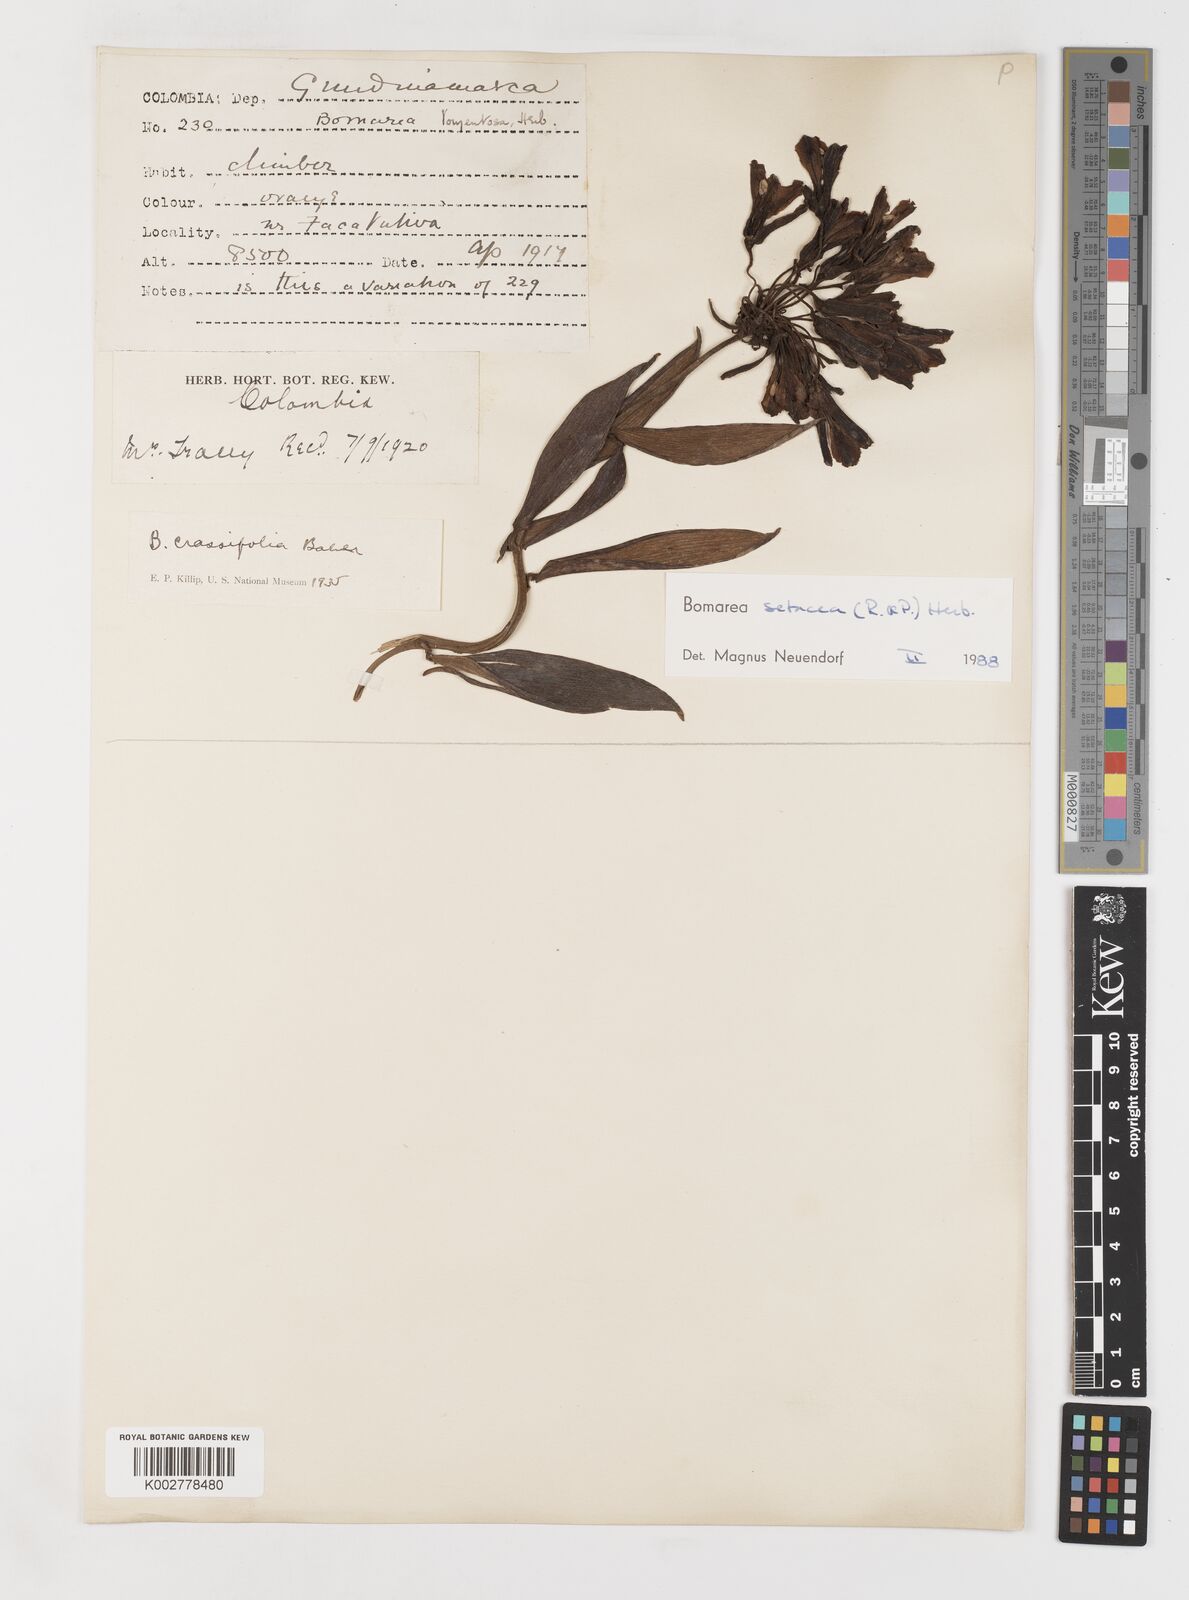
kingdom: Plantae
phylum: Tracheophyta
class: Liliopsida
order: Liliales
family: Alstroemeriaceae
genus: Bomarea
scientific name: Bomarea setacea
